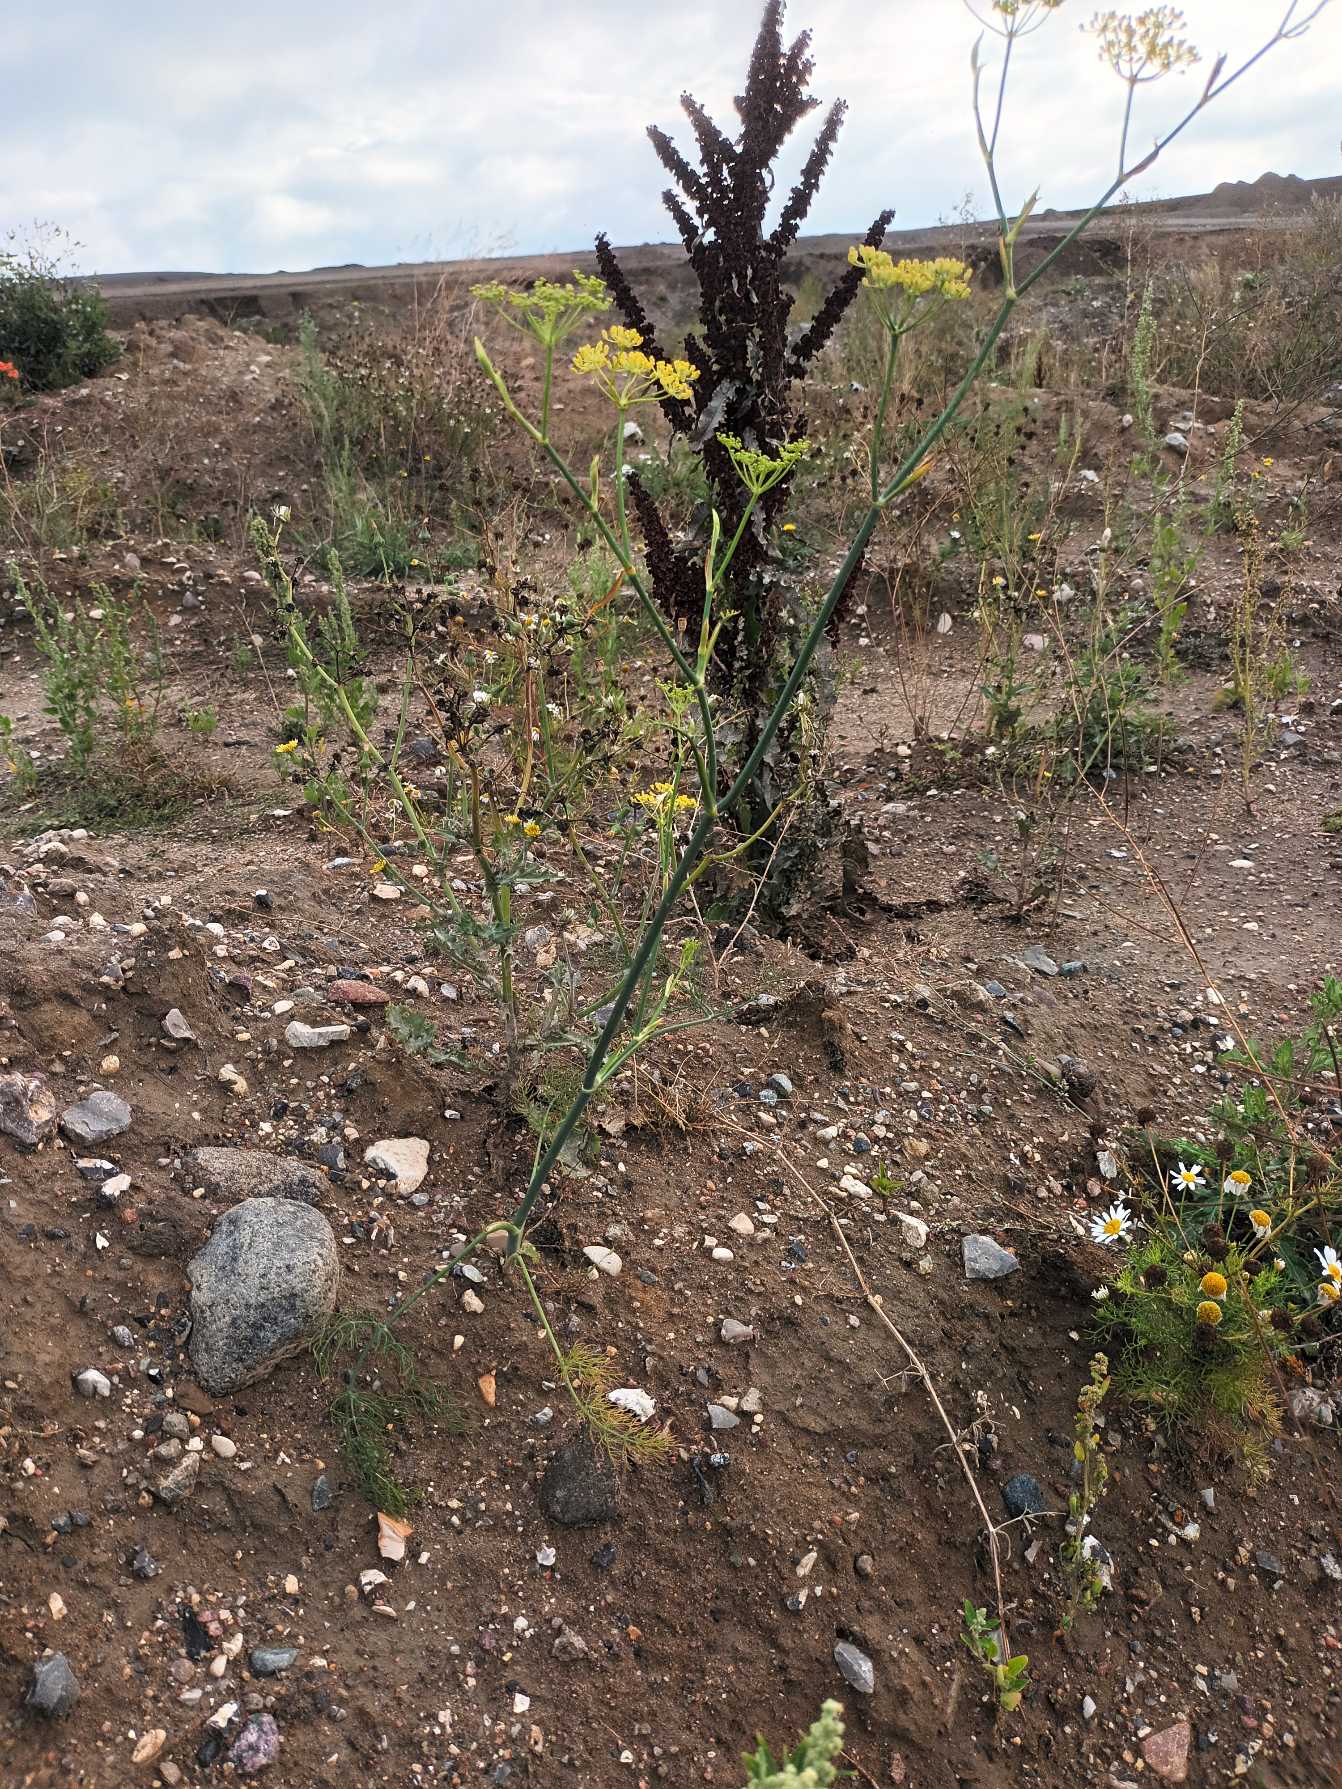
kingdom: Plantae
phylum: Tracheophyta
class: Magnoliopsida
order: Apiales
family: Apiaceae
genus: Anethum
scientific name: Anethum graveolens
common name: Dild
